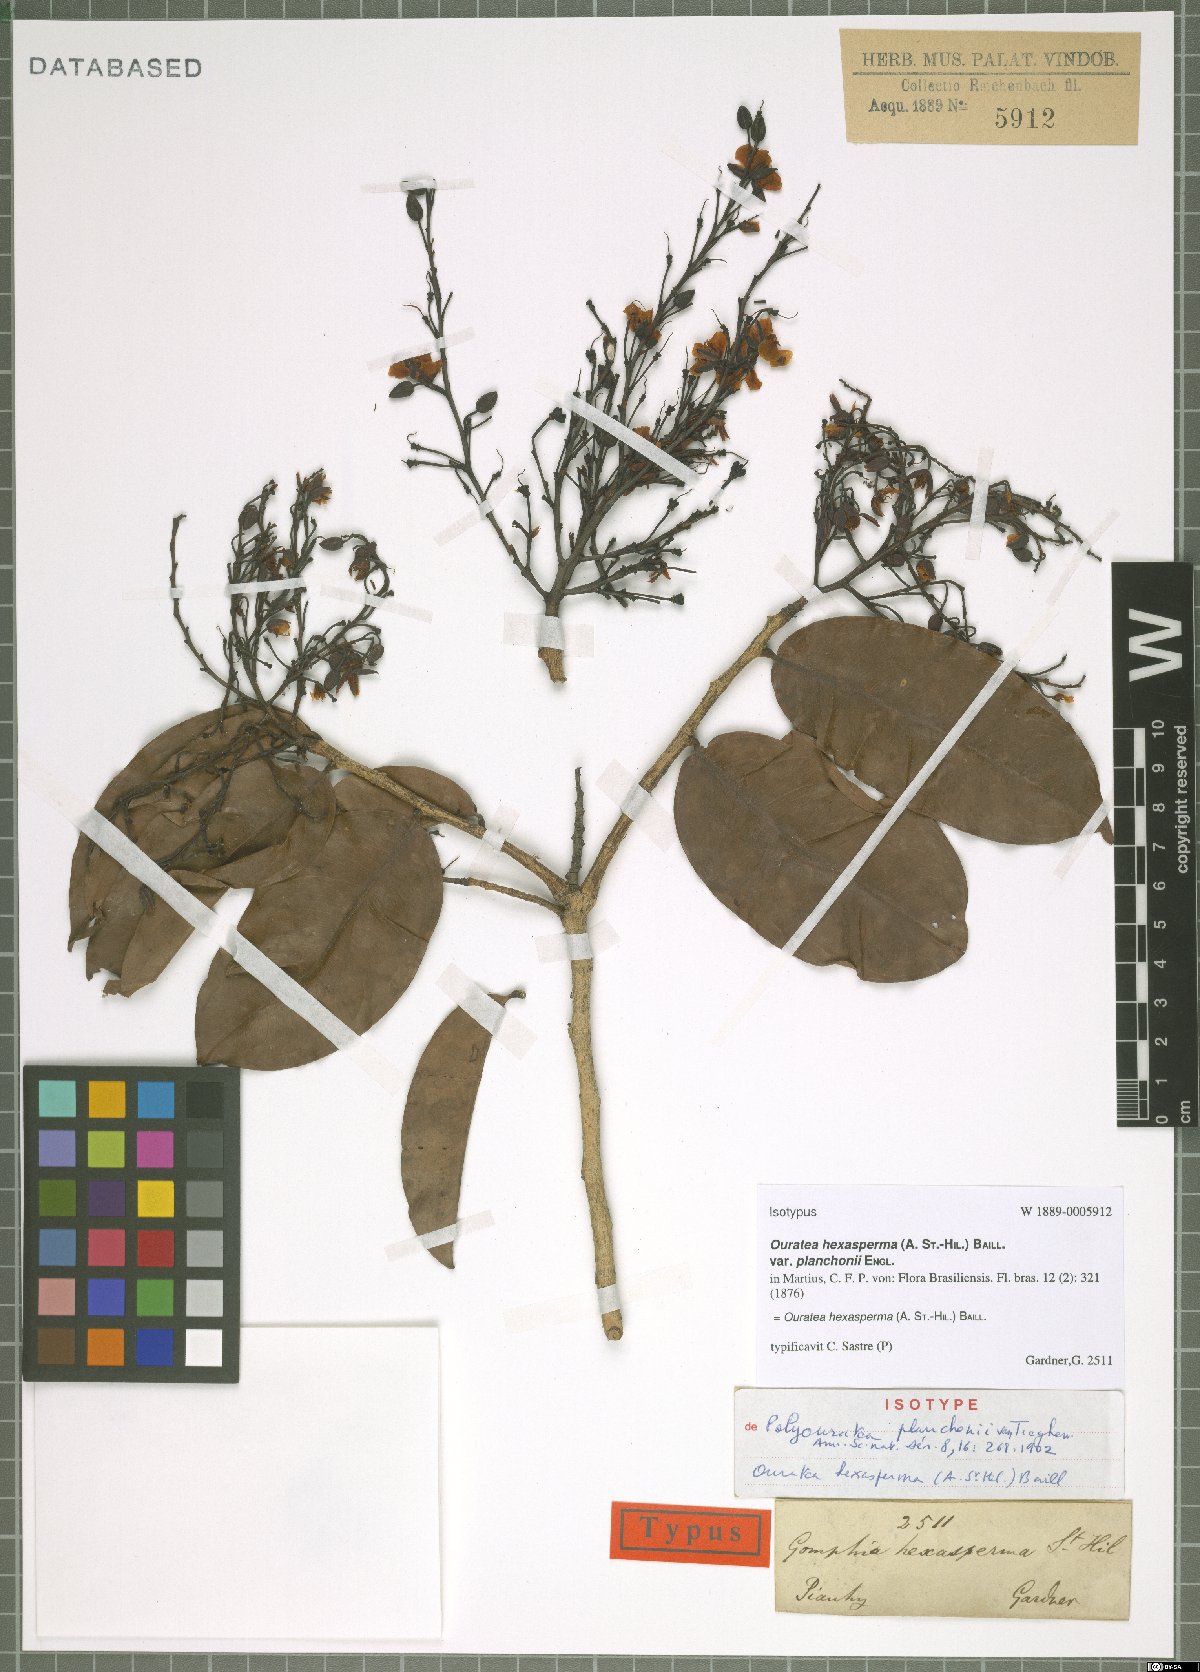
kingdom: Plantae
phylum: Tracheophyta
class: Magnoliopsida
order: Malpighiales
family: Ochnaceae
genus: Ouratea
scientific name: Ouratea hexasperma
